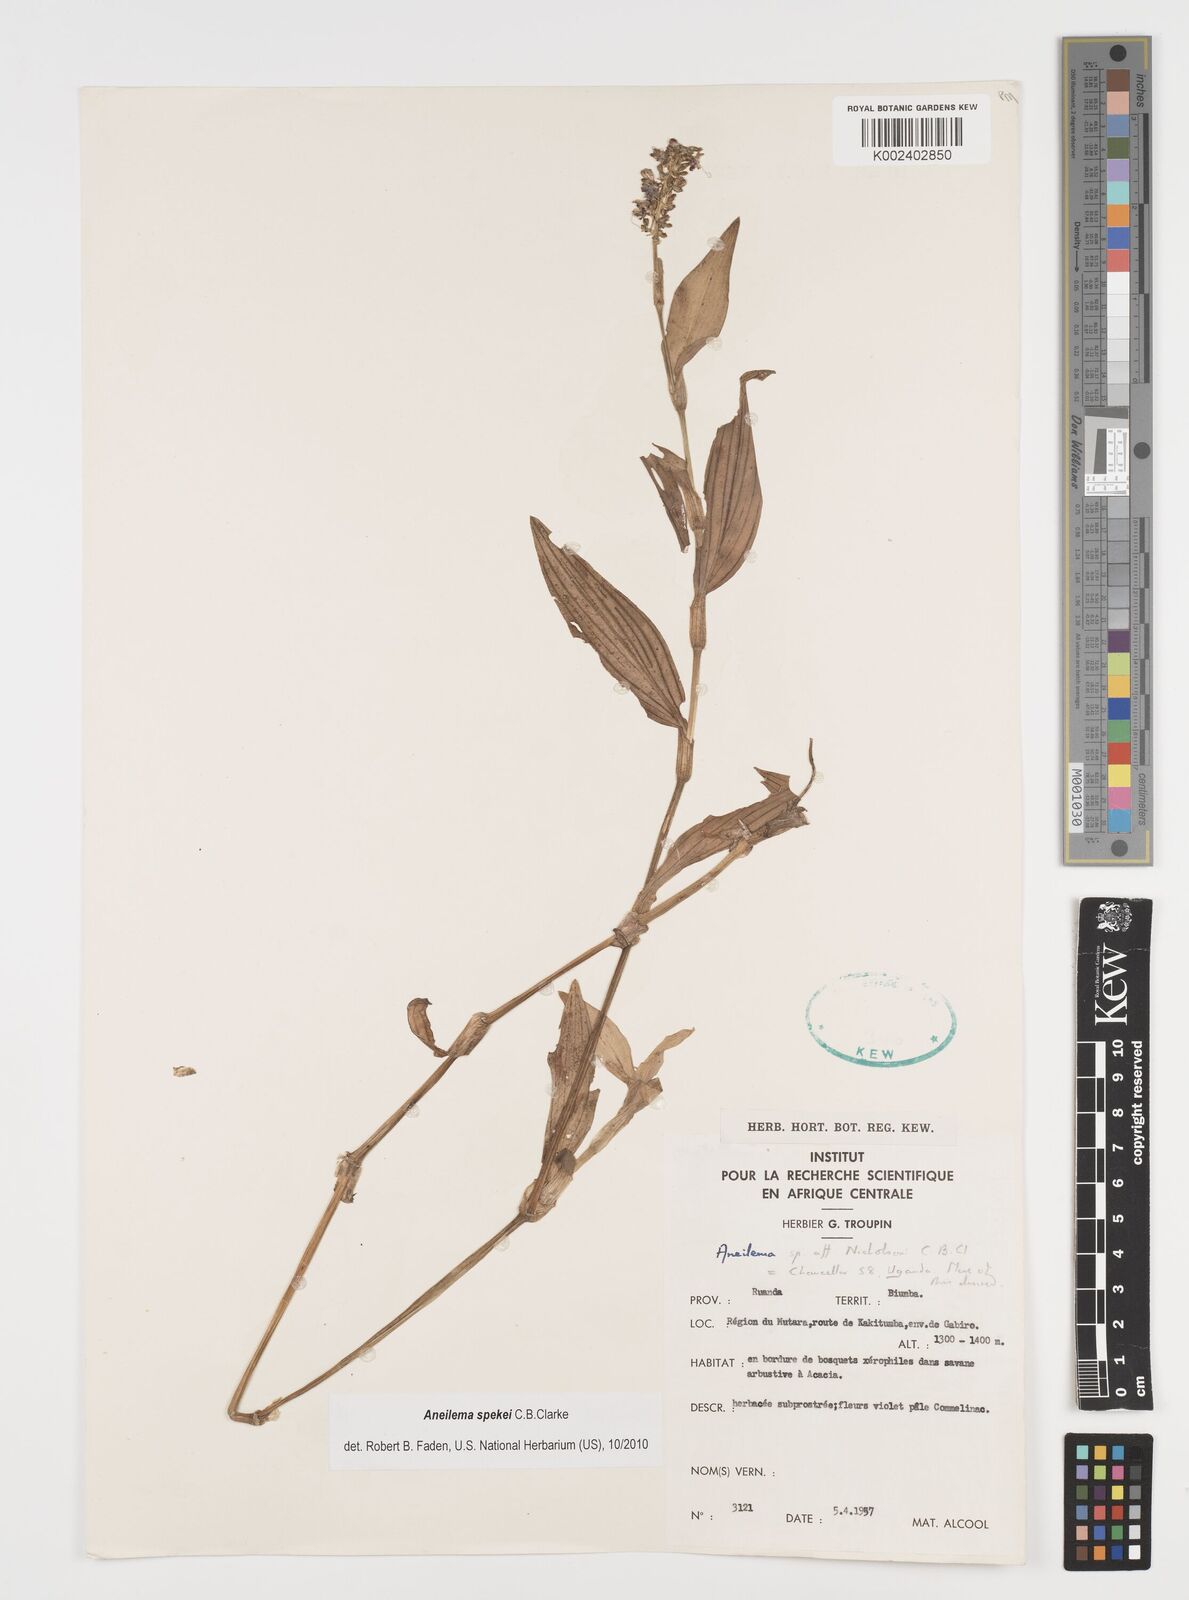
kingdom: Plantae
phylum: Tracheophyta
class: Liliopsida
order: Commelinales
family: Commelinaceae
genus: Aneilema
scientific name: Aneilema spekei
